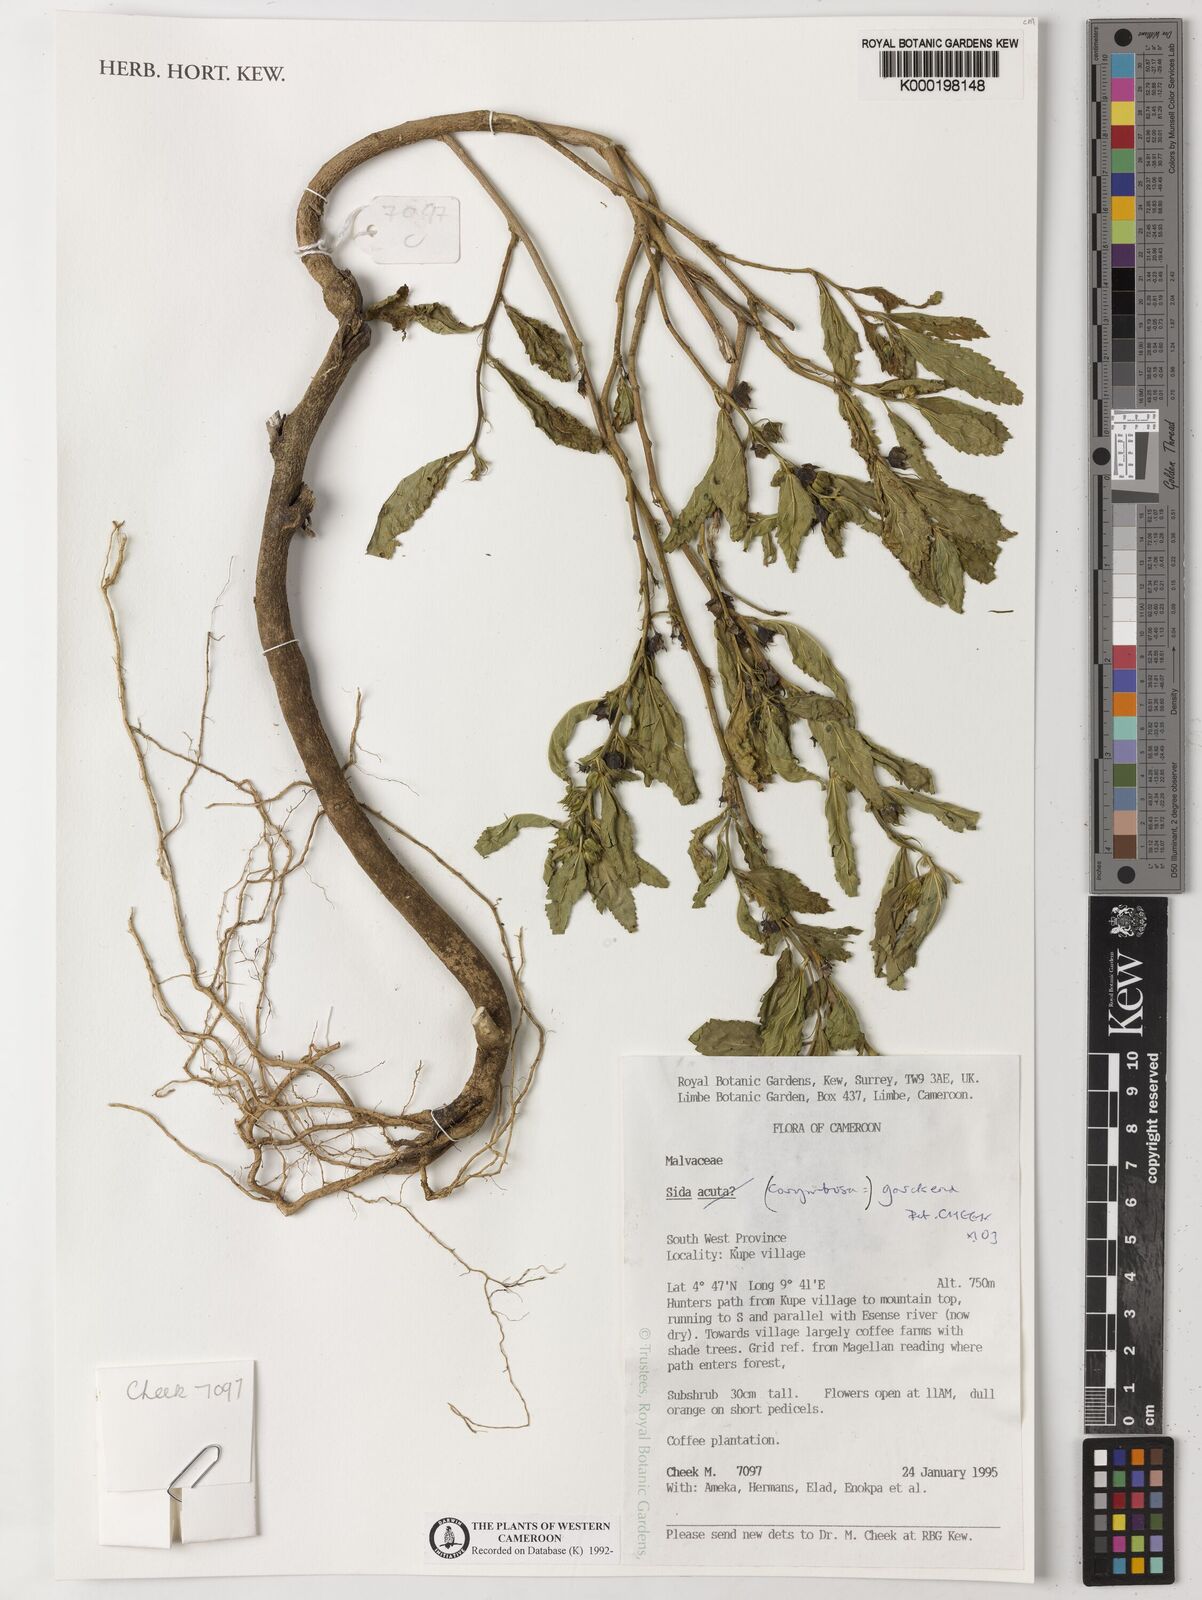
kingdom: Plantae
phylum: Tracheophyta
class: Magnoliopsida
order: Malvales
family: Malvaceae
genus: Sida
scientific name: Sida acuta
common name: Common wireweed
